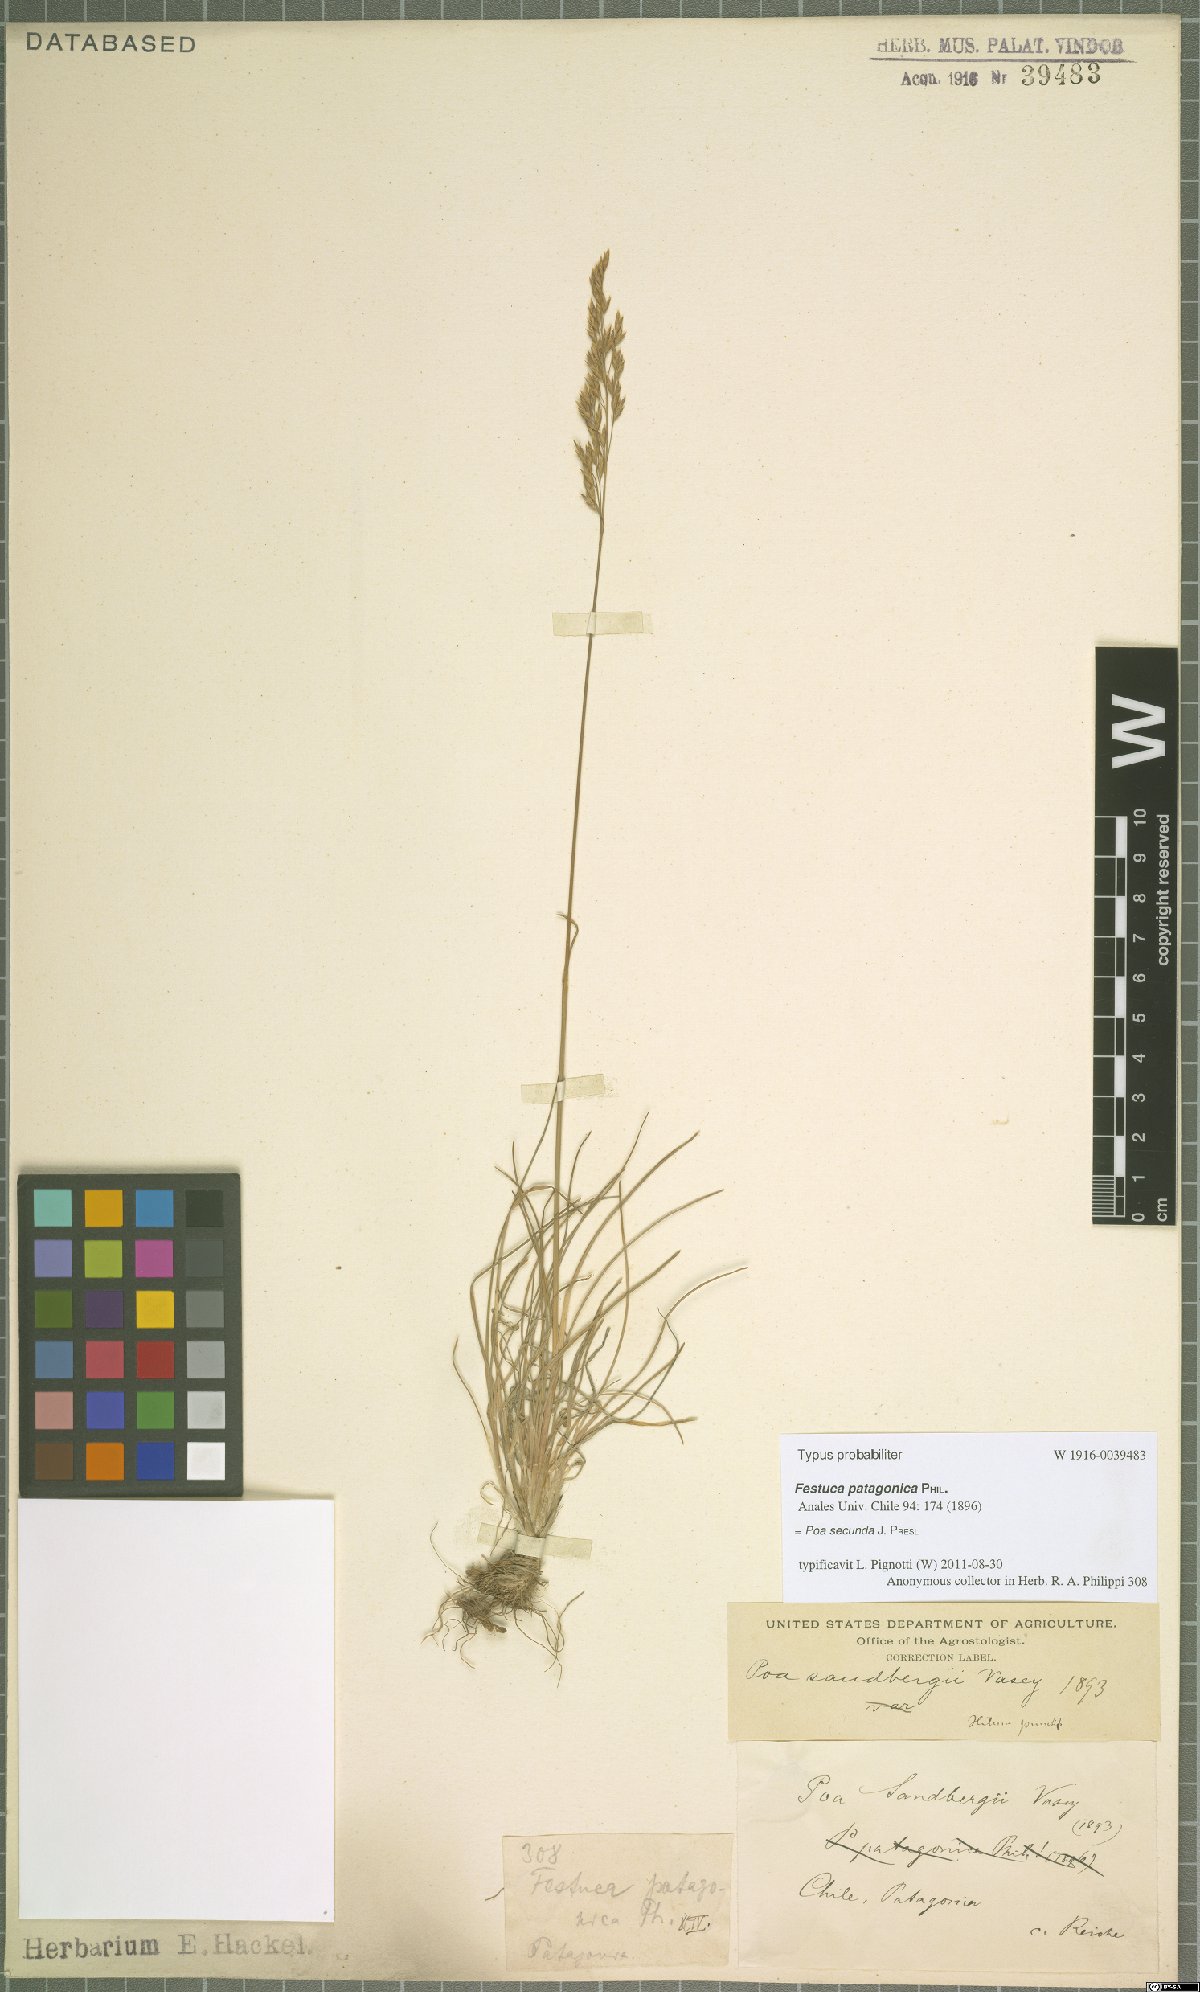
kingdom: Plantae
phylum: Tracheophyta
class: Liliopsida
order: Poales
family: Poaceae
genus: Poa
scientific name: Poa secunda
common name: Sandberg bluegrass
